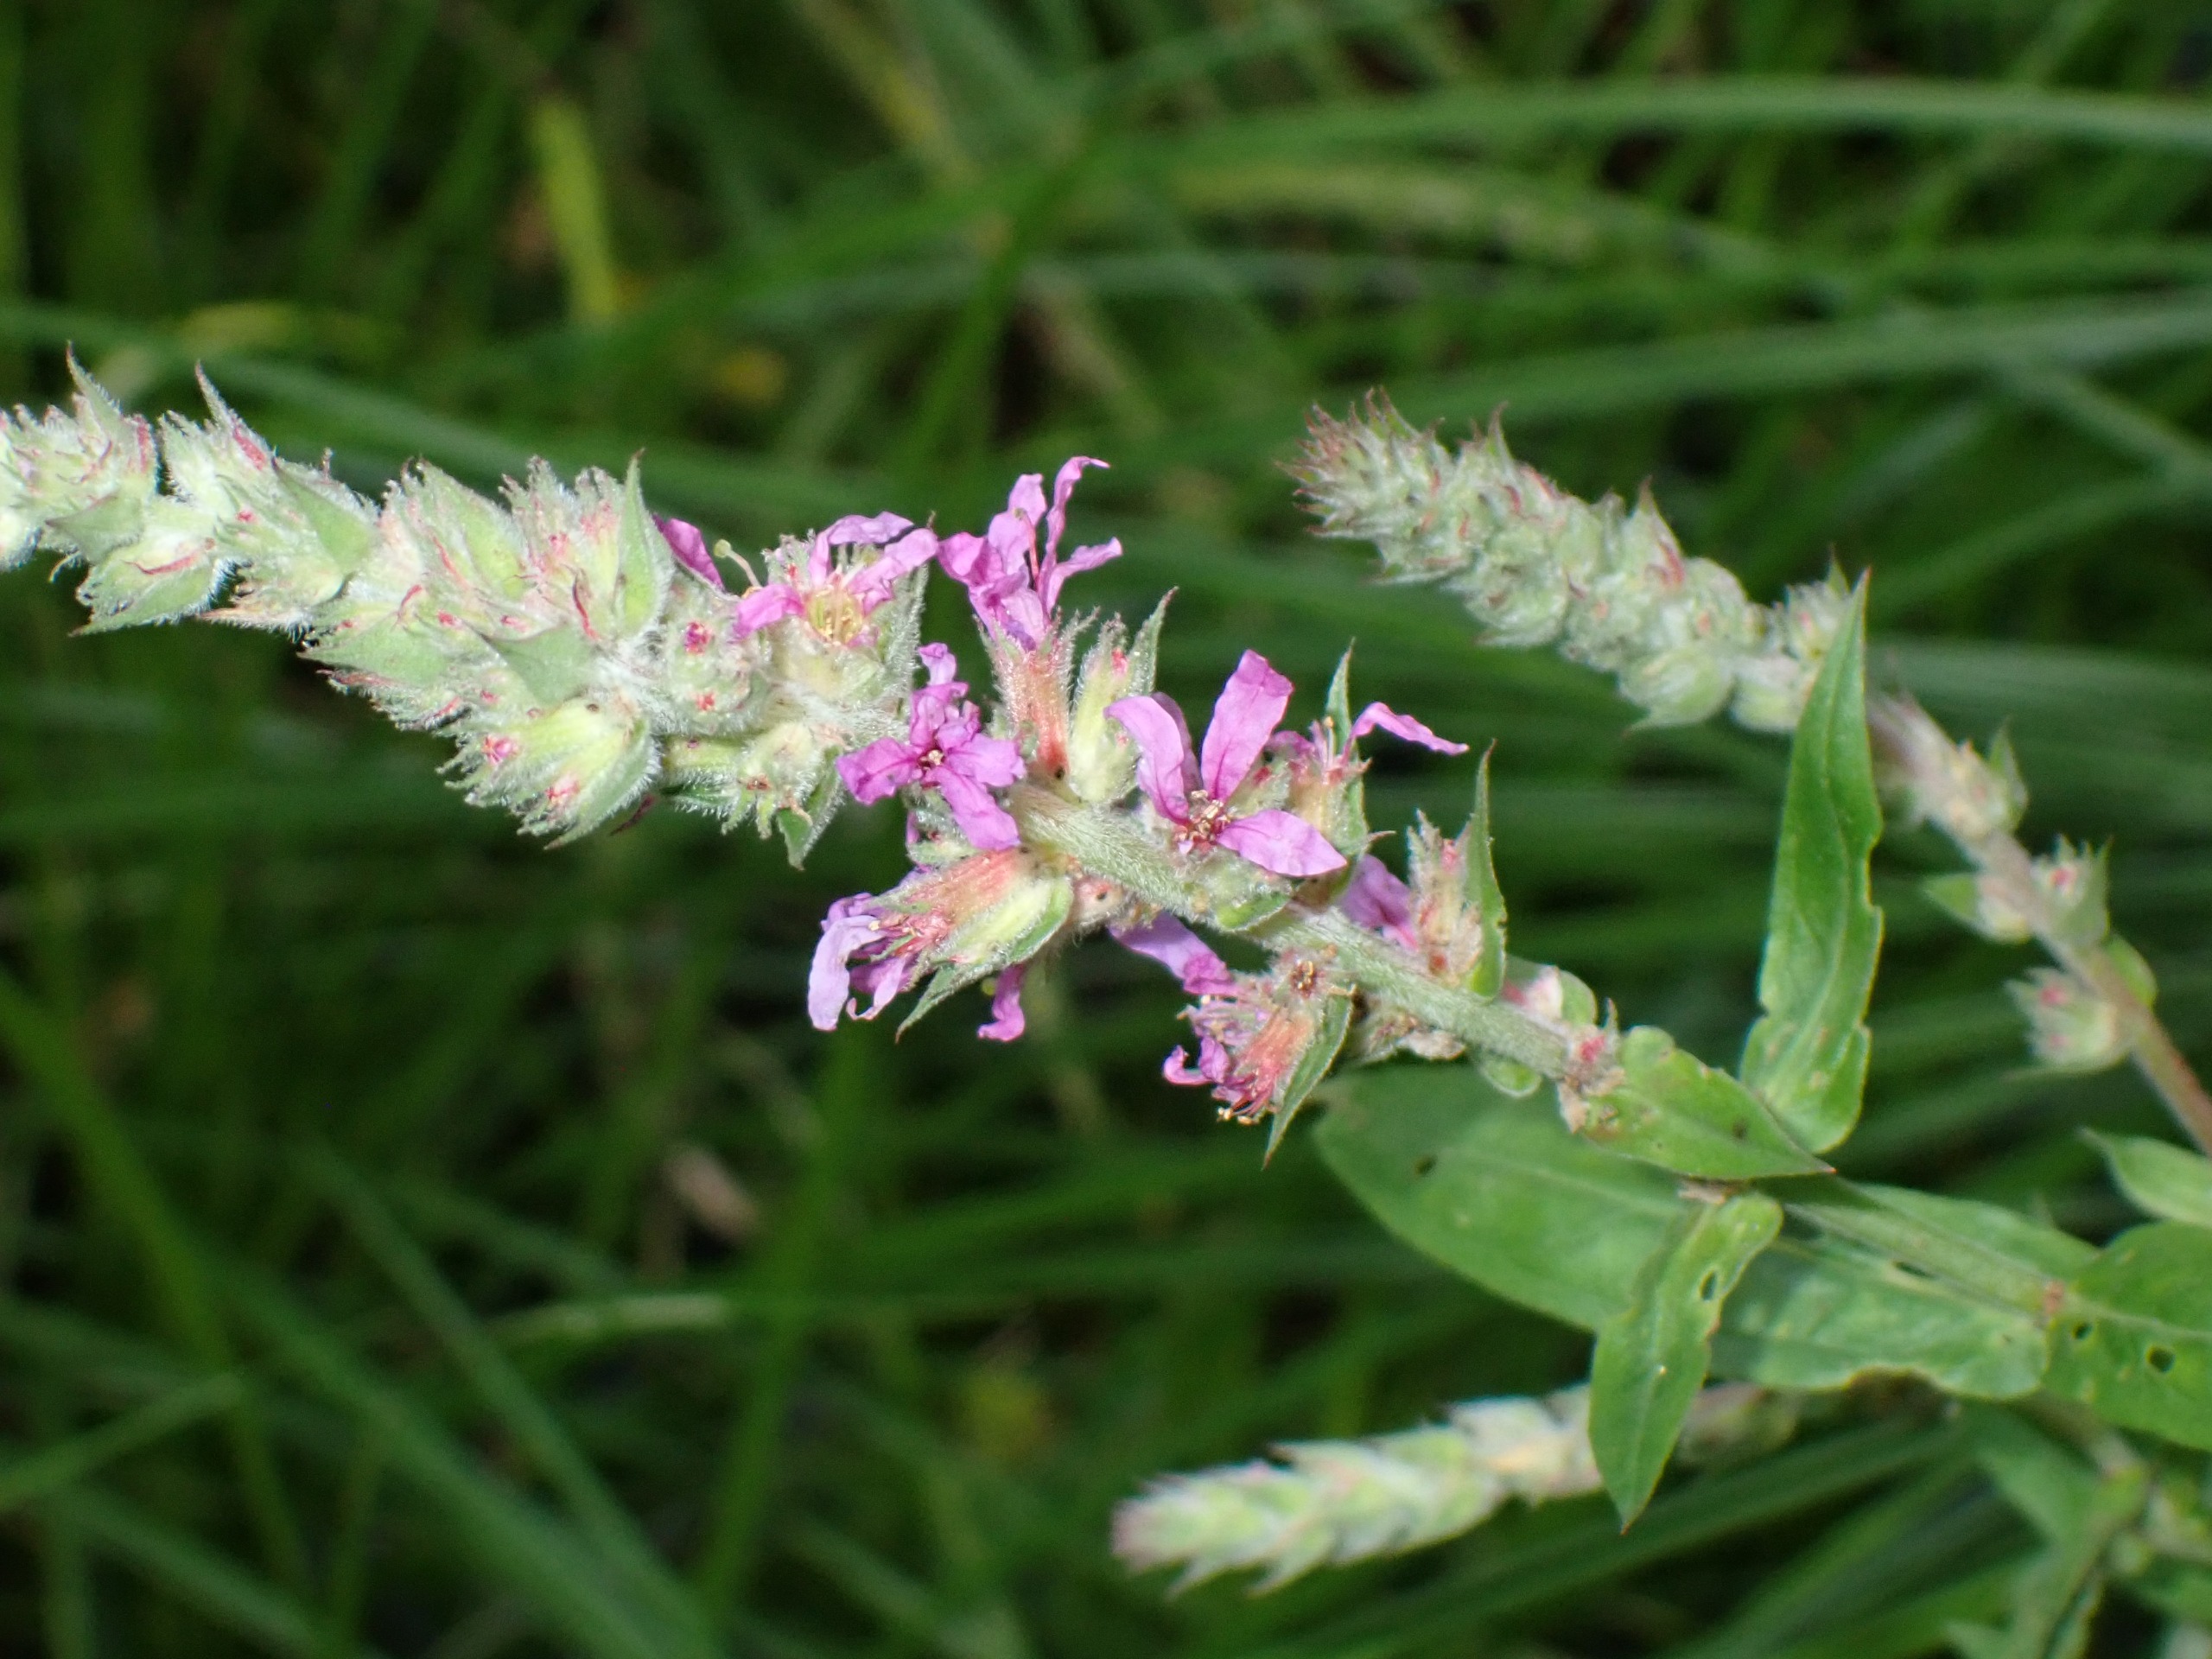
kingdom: Plantae
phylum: Tracheophyta
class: Magnoliopsida
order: Myrtales
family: Lythraceae
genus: Lythrum
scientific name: Lythrum salicaria
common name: Kattehale
